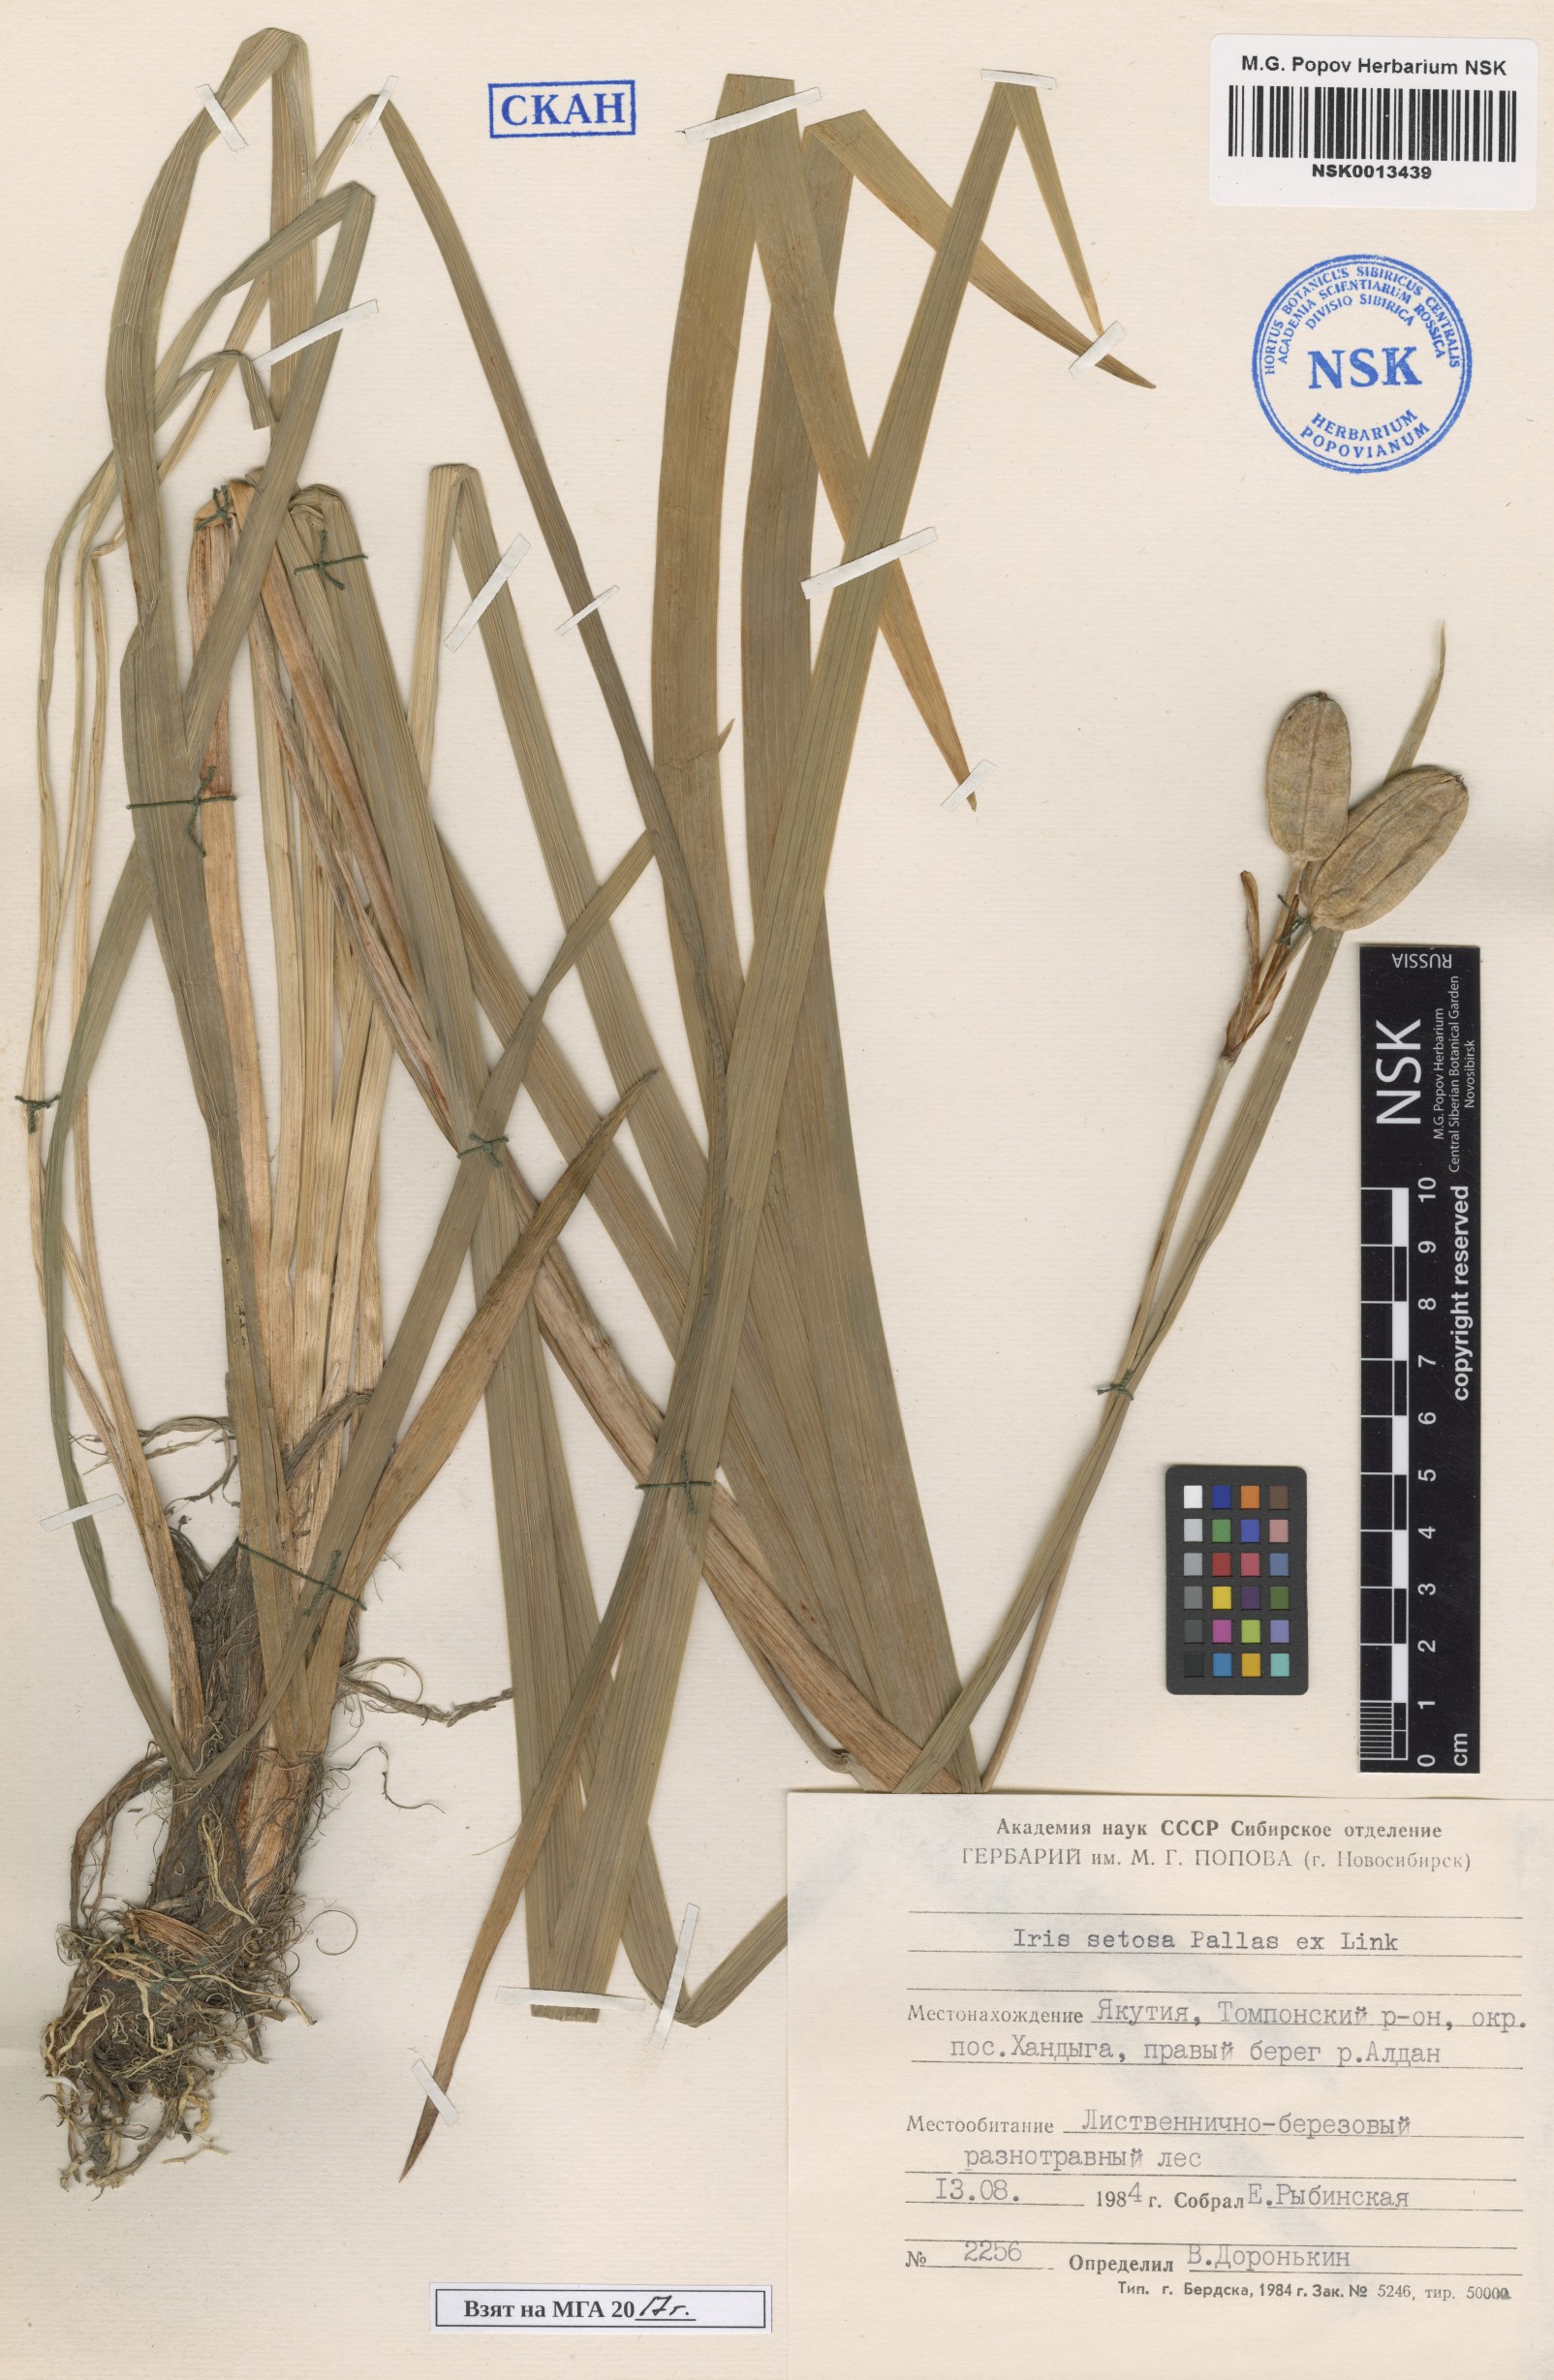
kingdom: Plantae
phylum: Tracheophyta
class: Liliopsida
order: Asparagales
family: Iridaceae
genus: Iris
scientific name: Iris setosa
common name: Arctic blue flag
